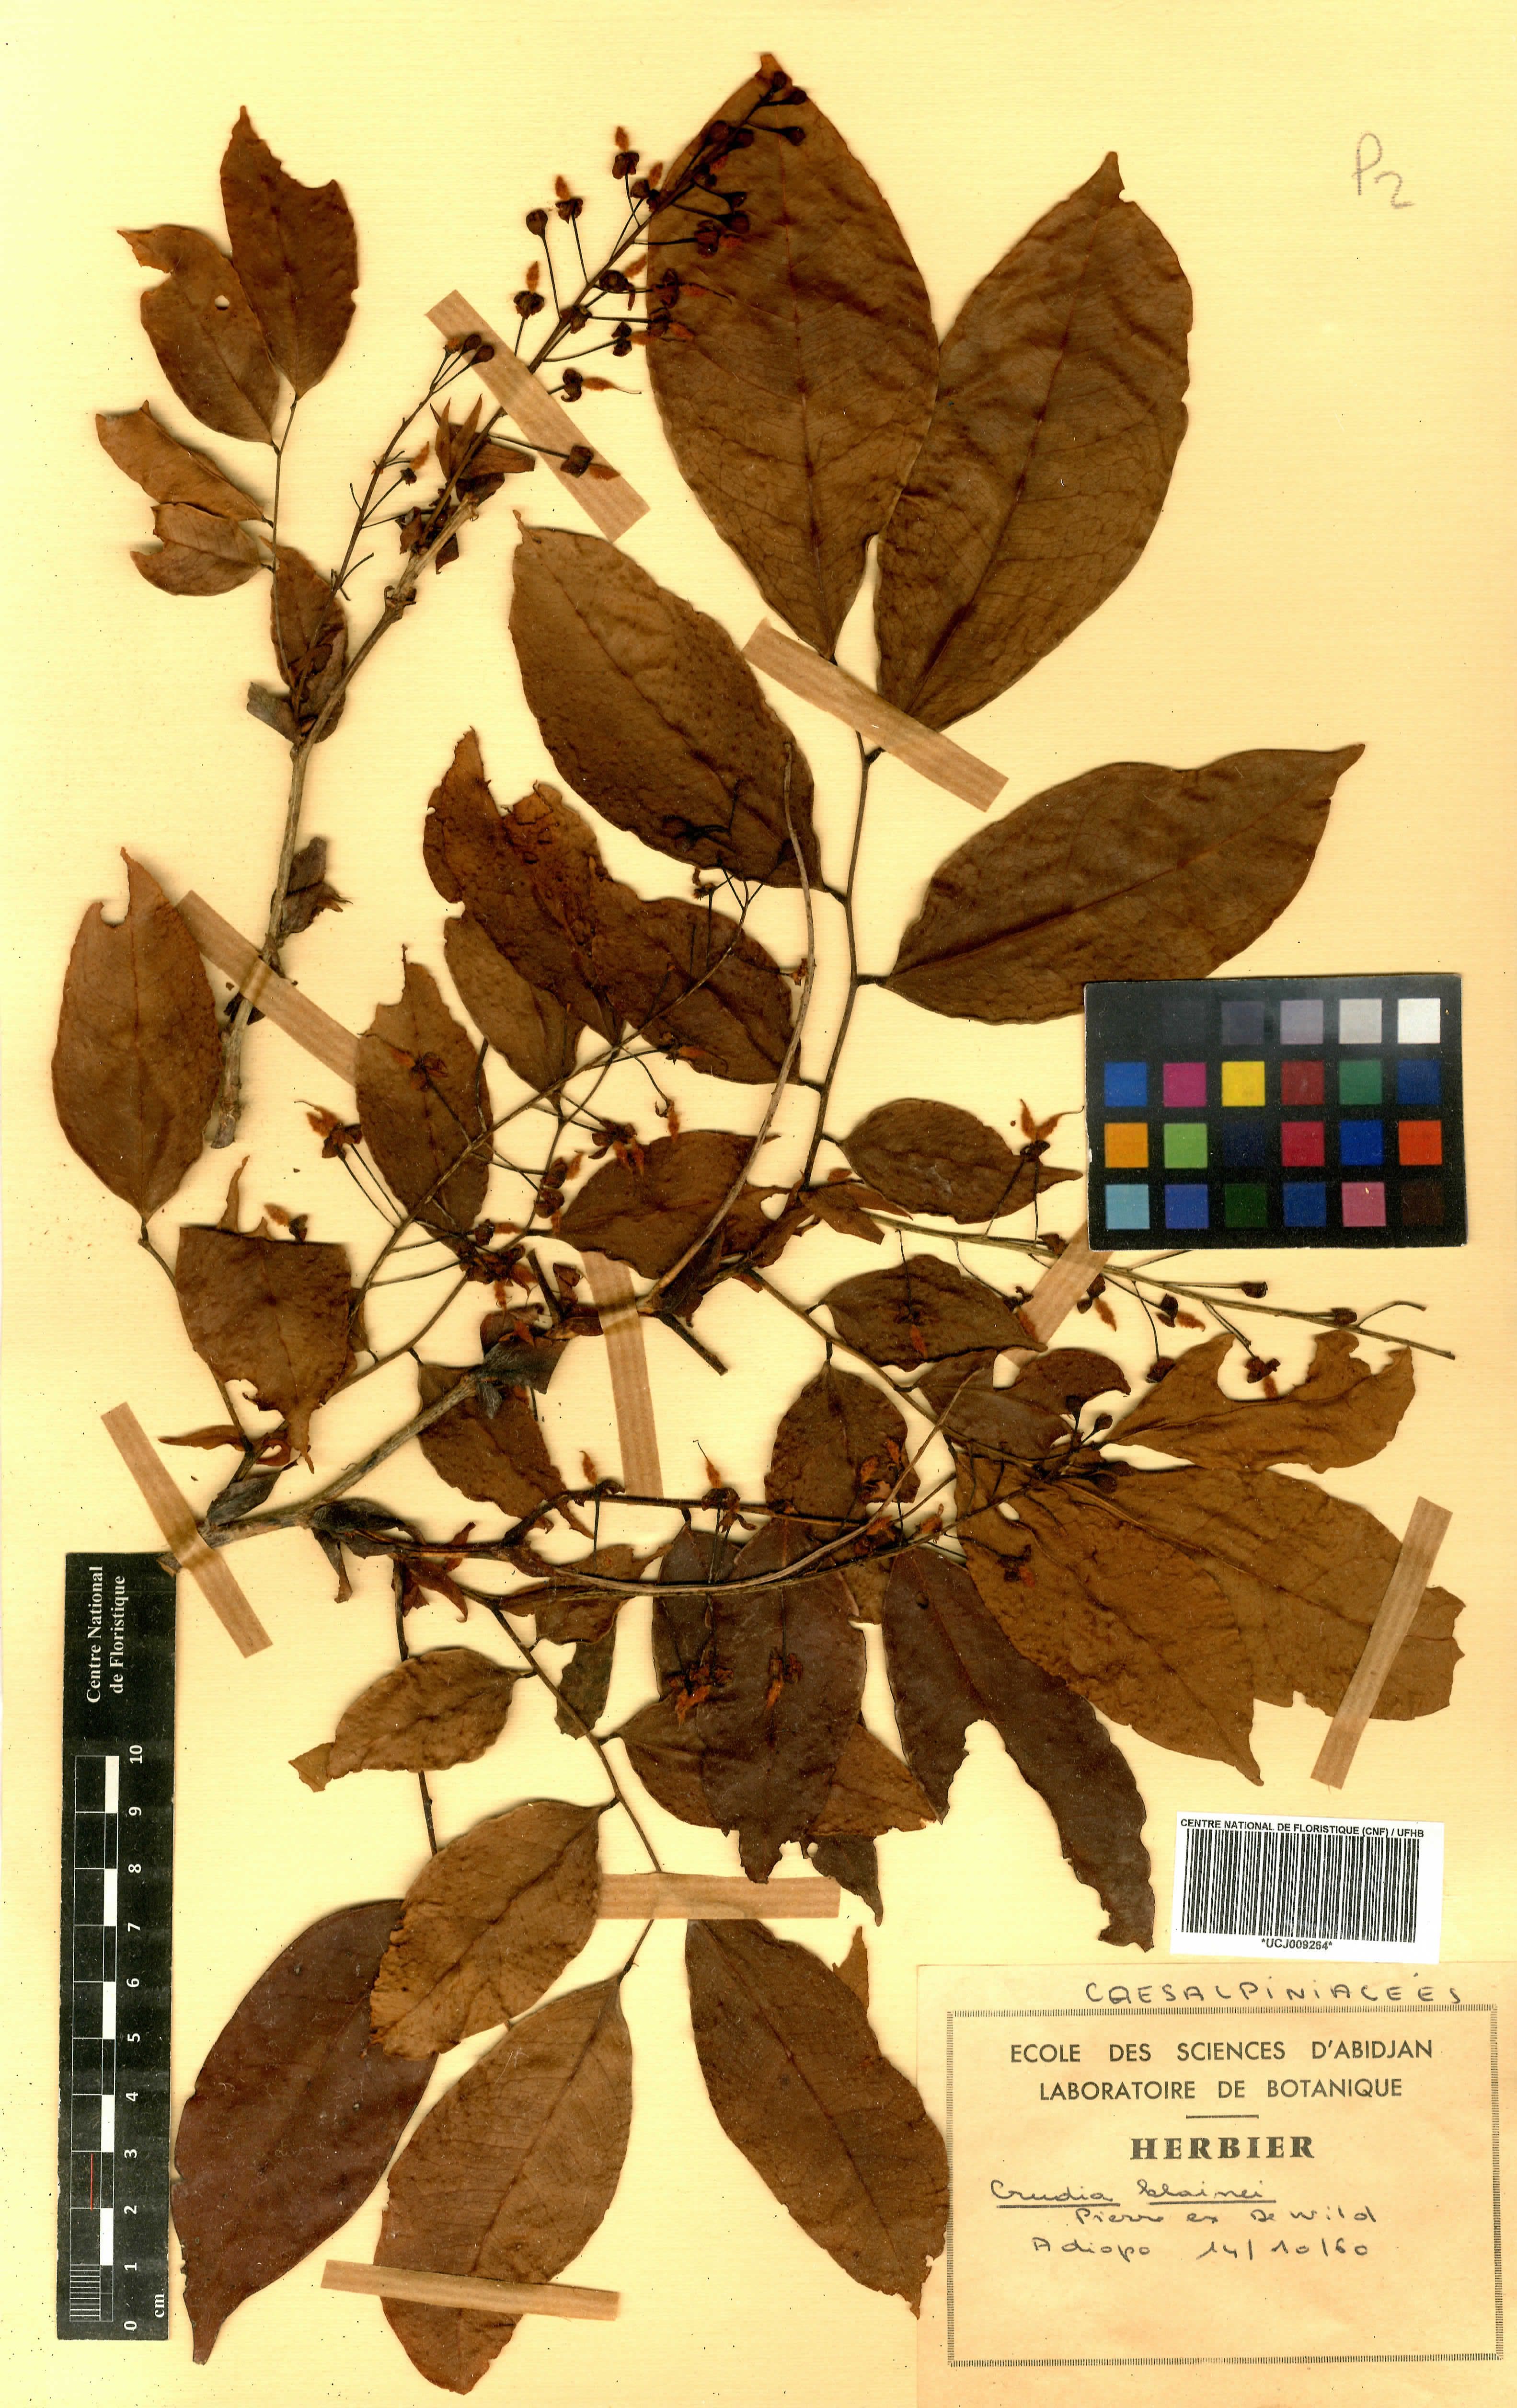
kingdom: Plantae
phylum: Tracheophyta
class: Magnoliopsida
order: Fabales
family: Fabaceae
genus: Crudia
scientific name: Crudia klainei
